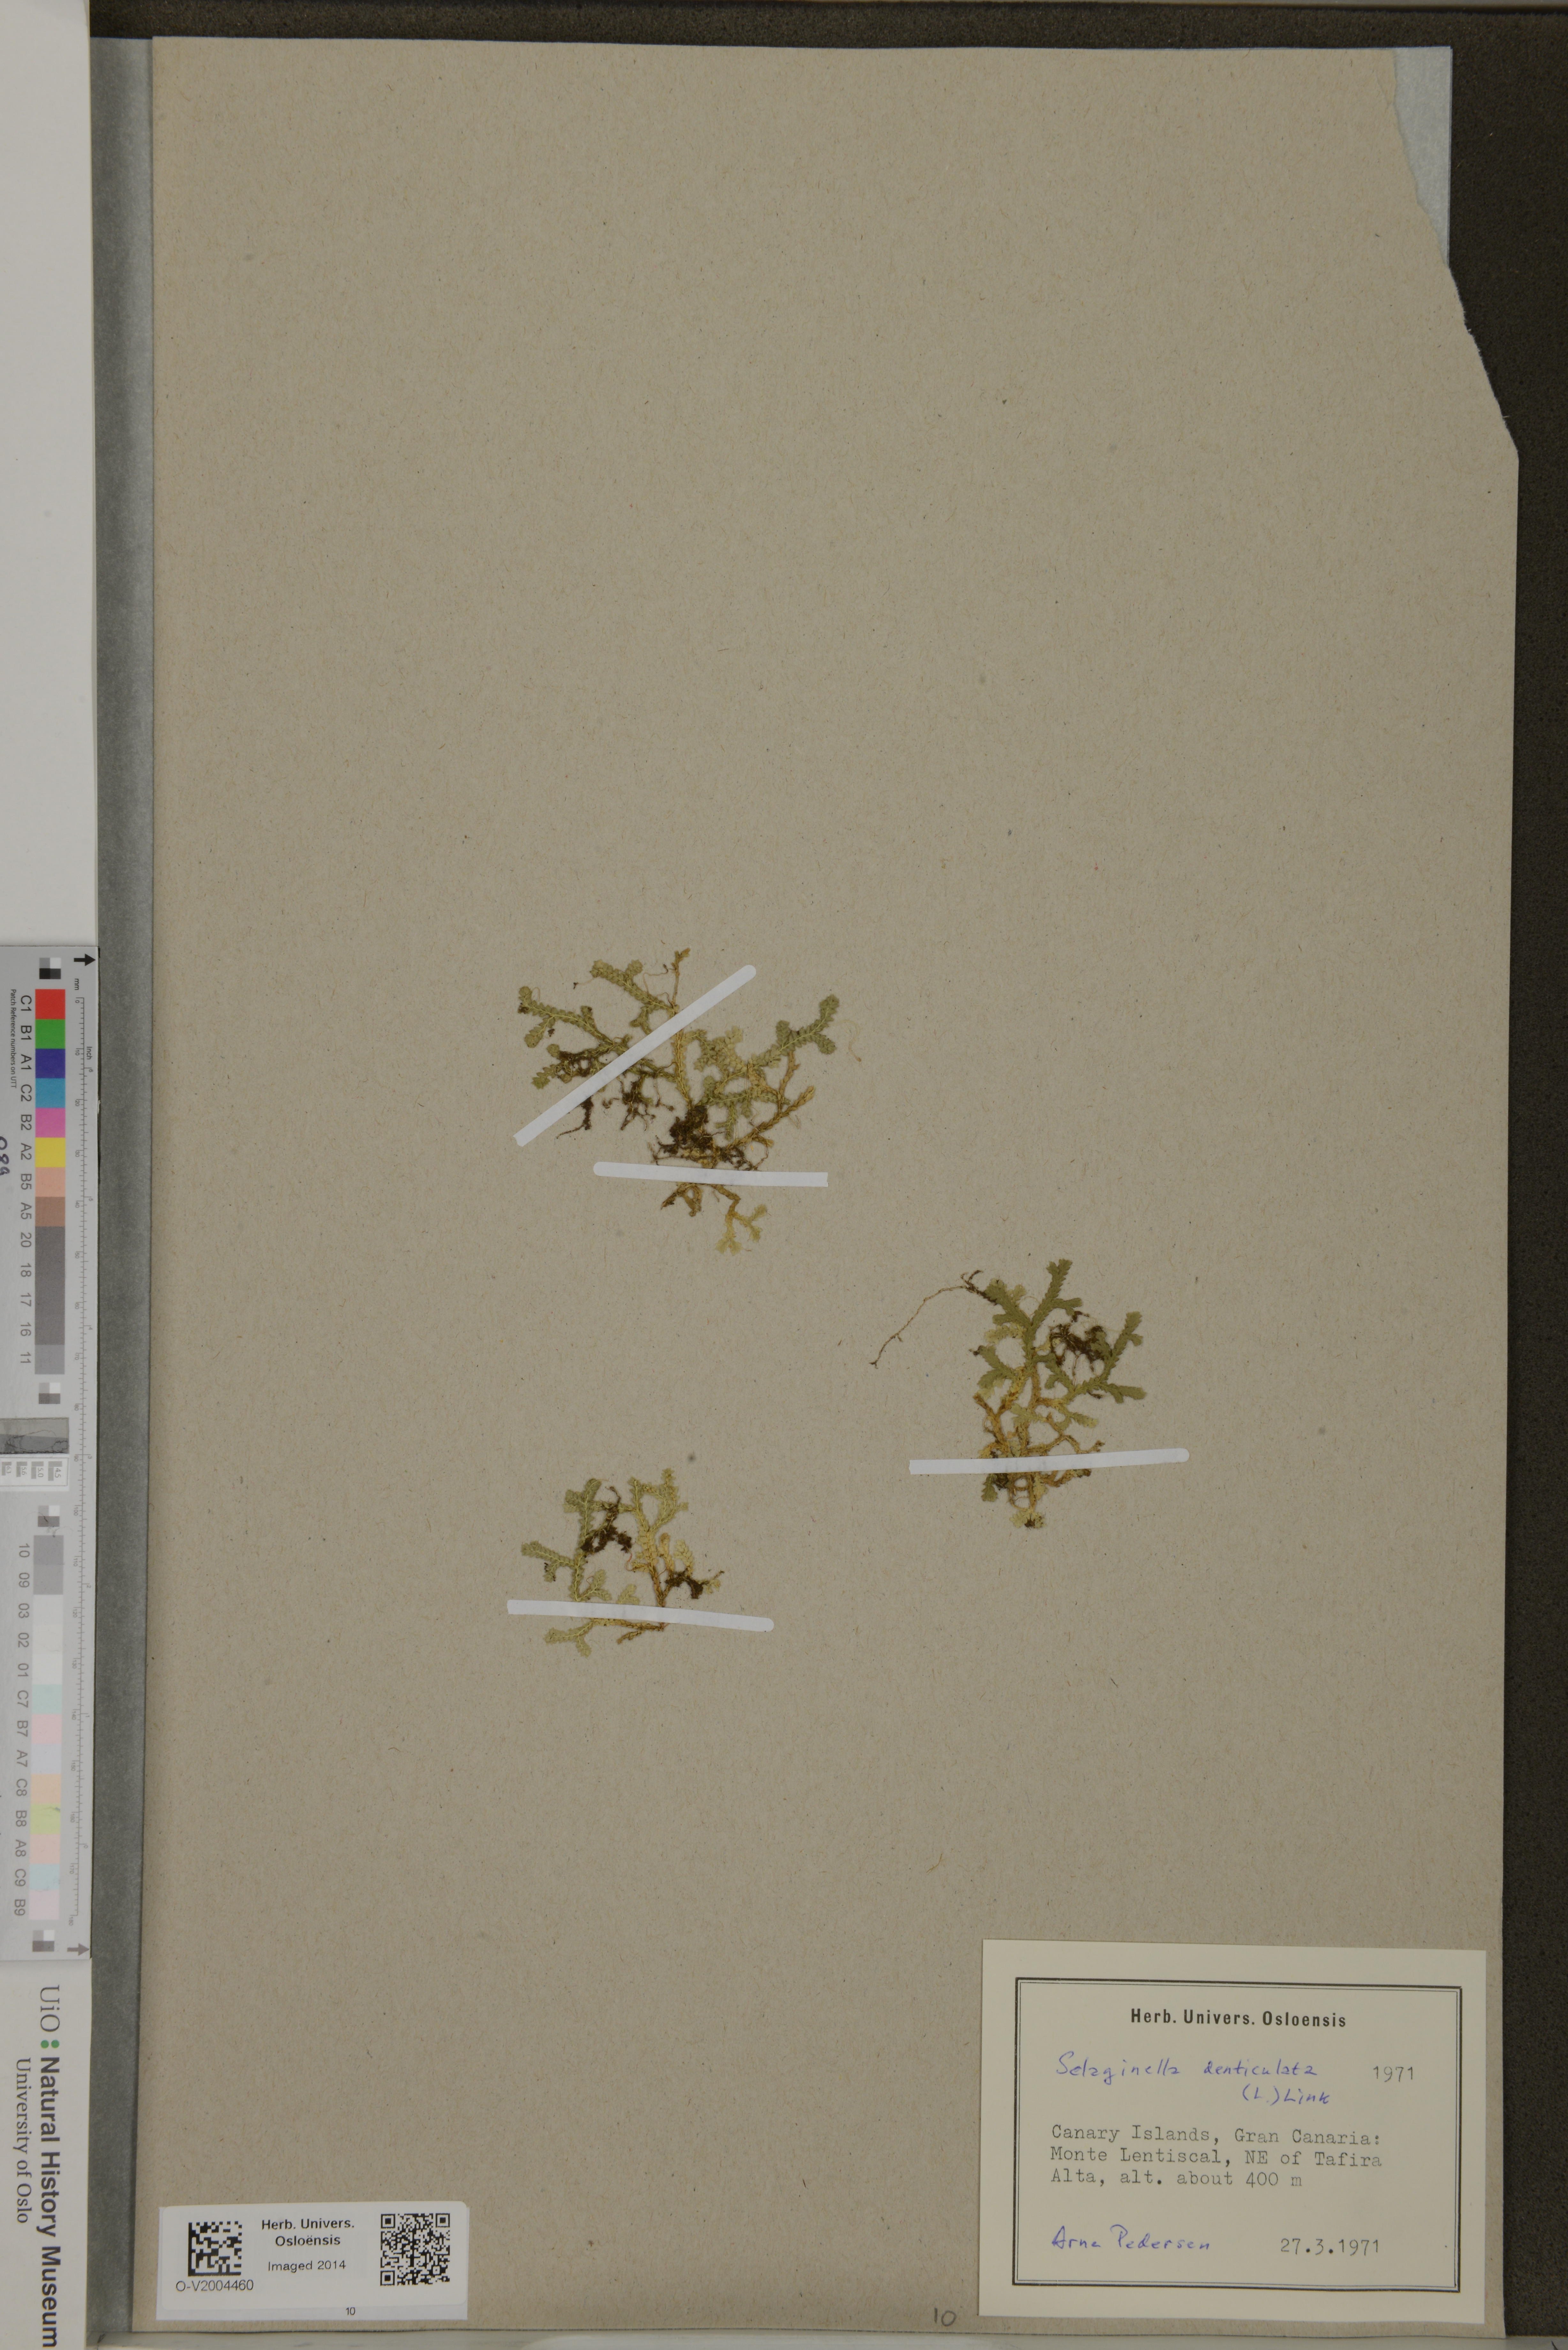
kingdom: Plantae
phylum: Tracheophyta
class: Lycopodiopsida
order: Selaginellales
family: Selaginellaceae
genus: Selaginella
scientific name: Selaginella denticulata
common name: Toothed-leaved clubmoss
